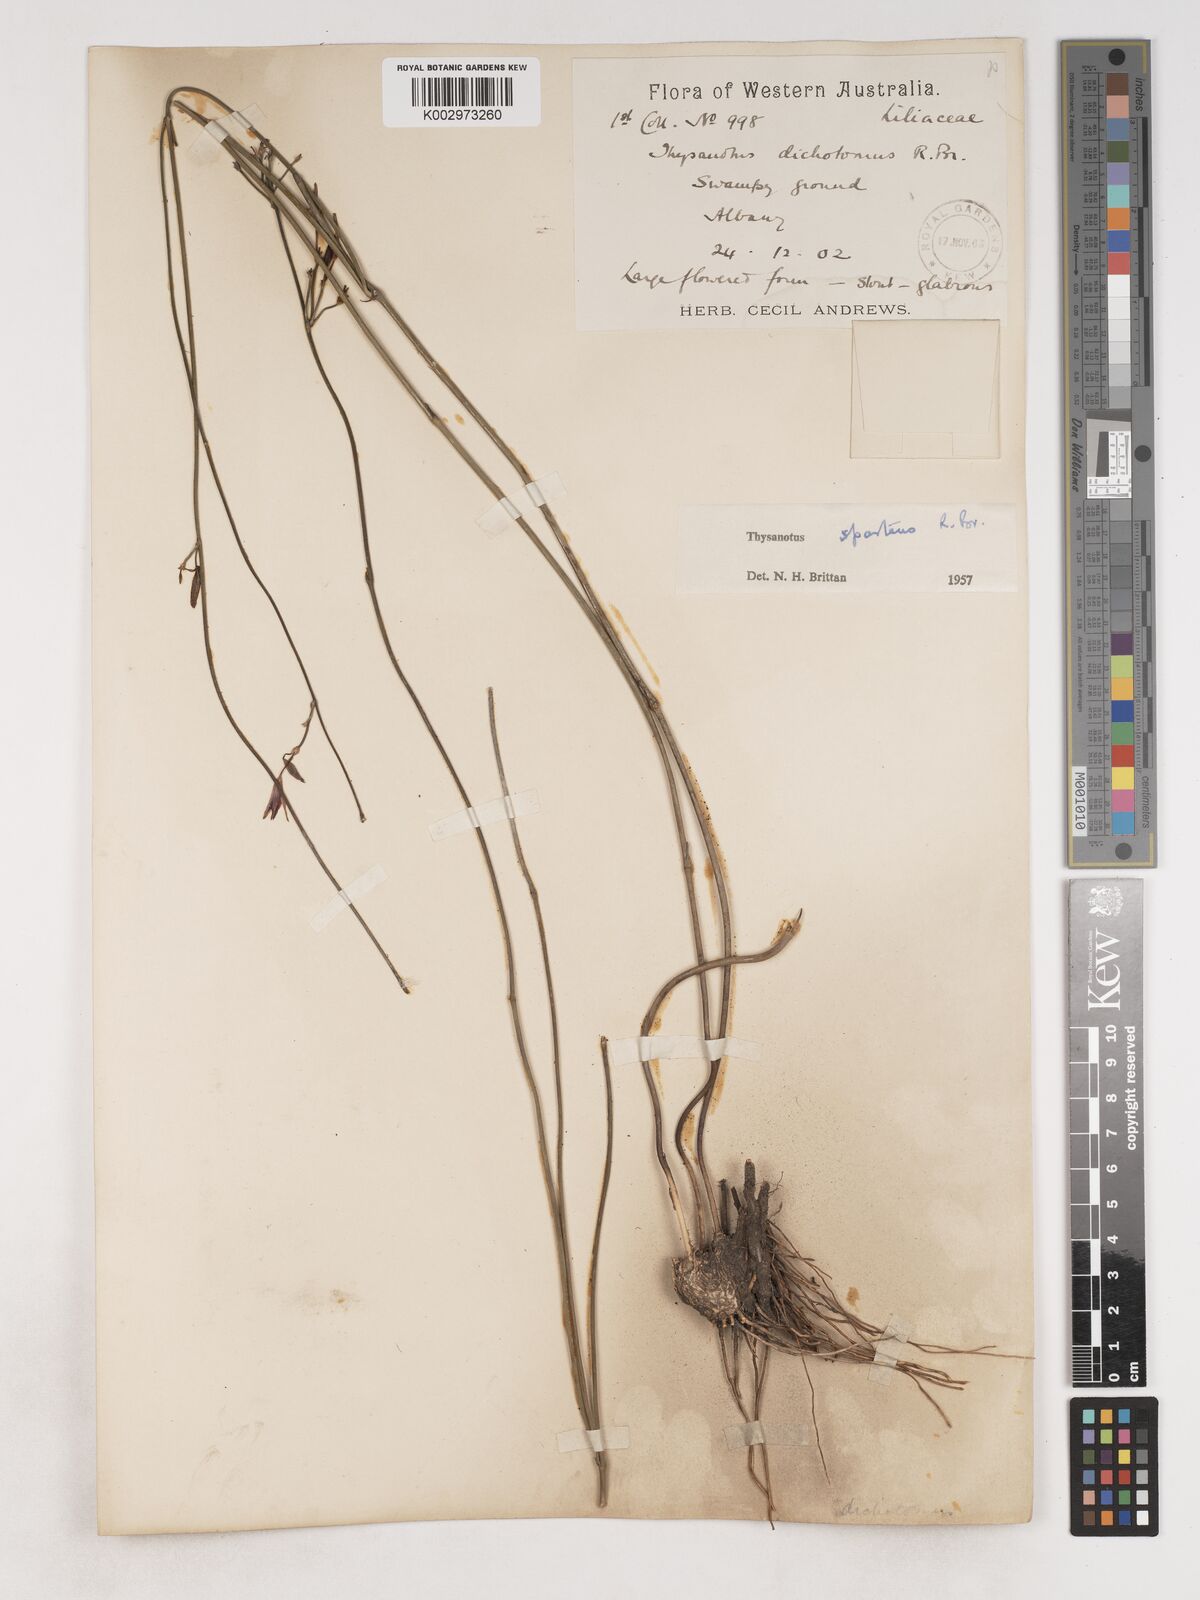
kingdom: Plantae
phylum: Tracheophyta
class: Liliopsida
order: Asparagales
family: Asparagaceae
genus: Thysanotus
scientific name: Thysanotus sparteus
